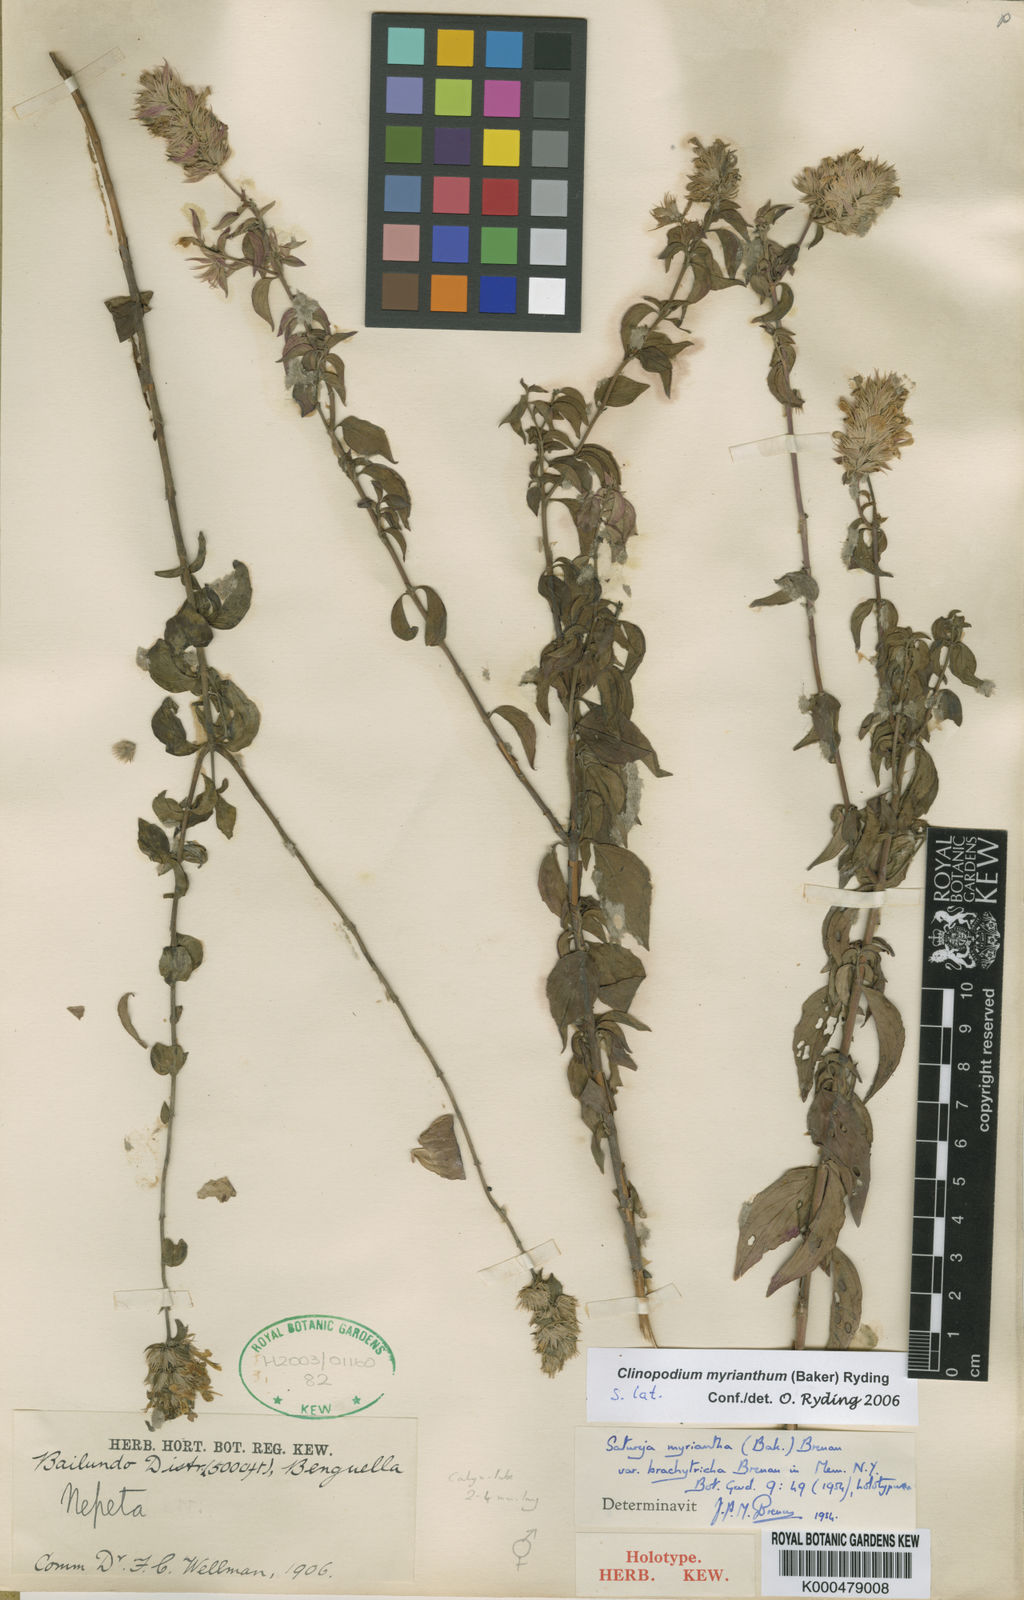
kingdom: Plantae
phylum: Tracheophyta
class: Magnoliopsida
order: Lamiales
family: Lamiaceae
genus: Clinopodium
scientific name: Clinopodium myrianthum
